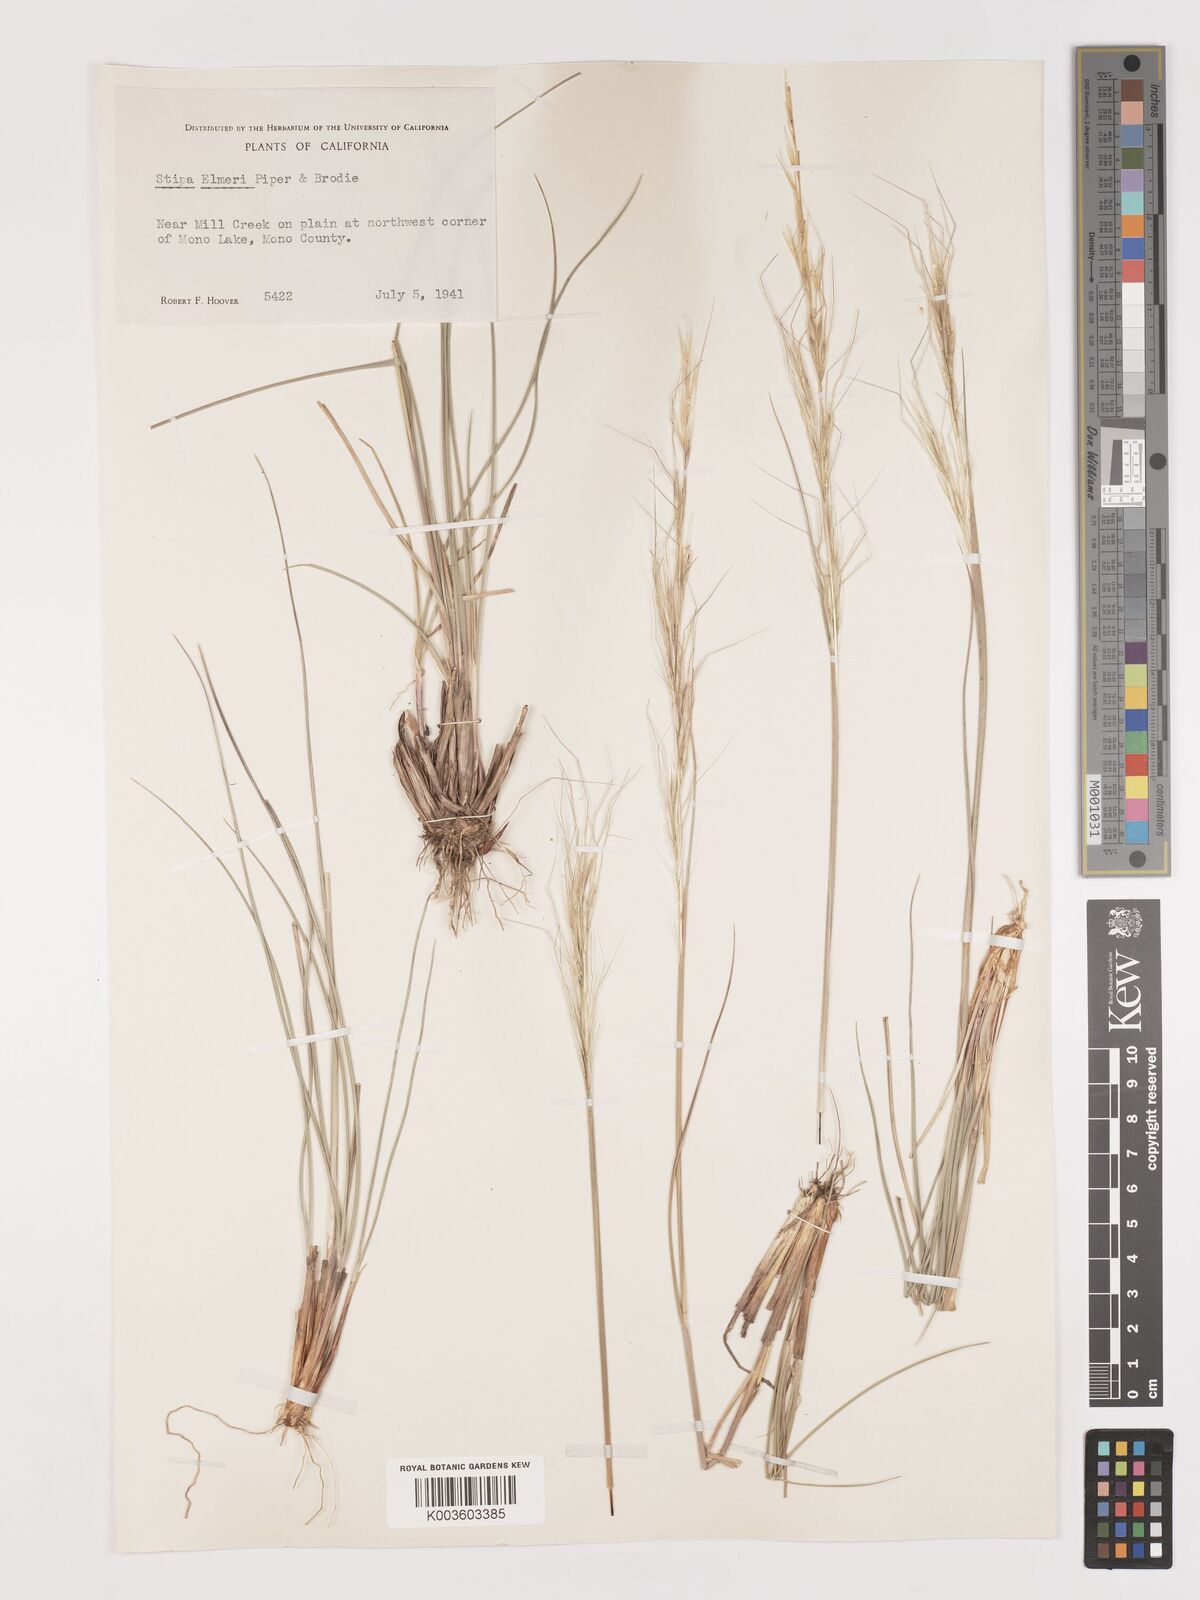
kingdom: Plantae
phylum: Tracheophyta
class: Liliopsida
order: Poales
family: Poaceae
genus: Eriocoma
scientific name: Eriocoma thurberiana
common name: Thurber's needlegrass
